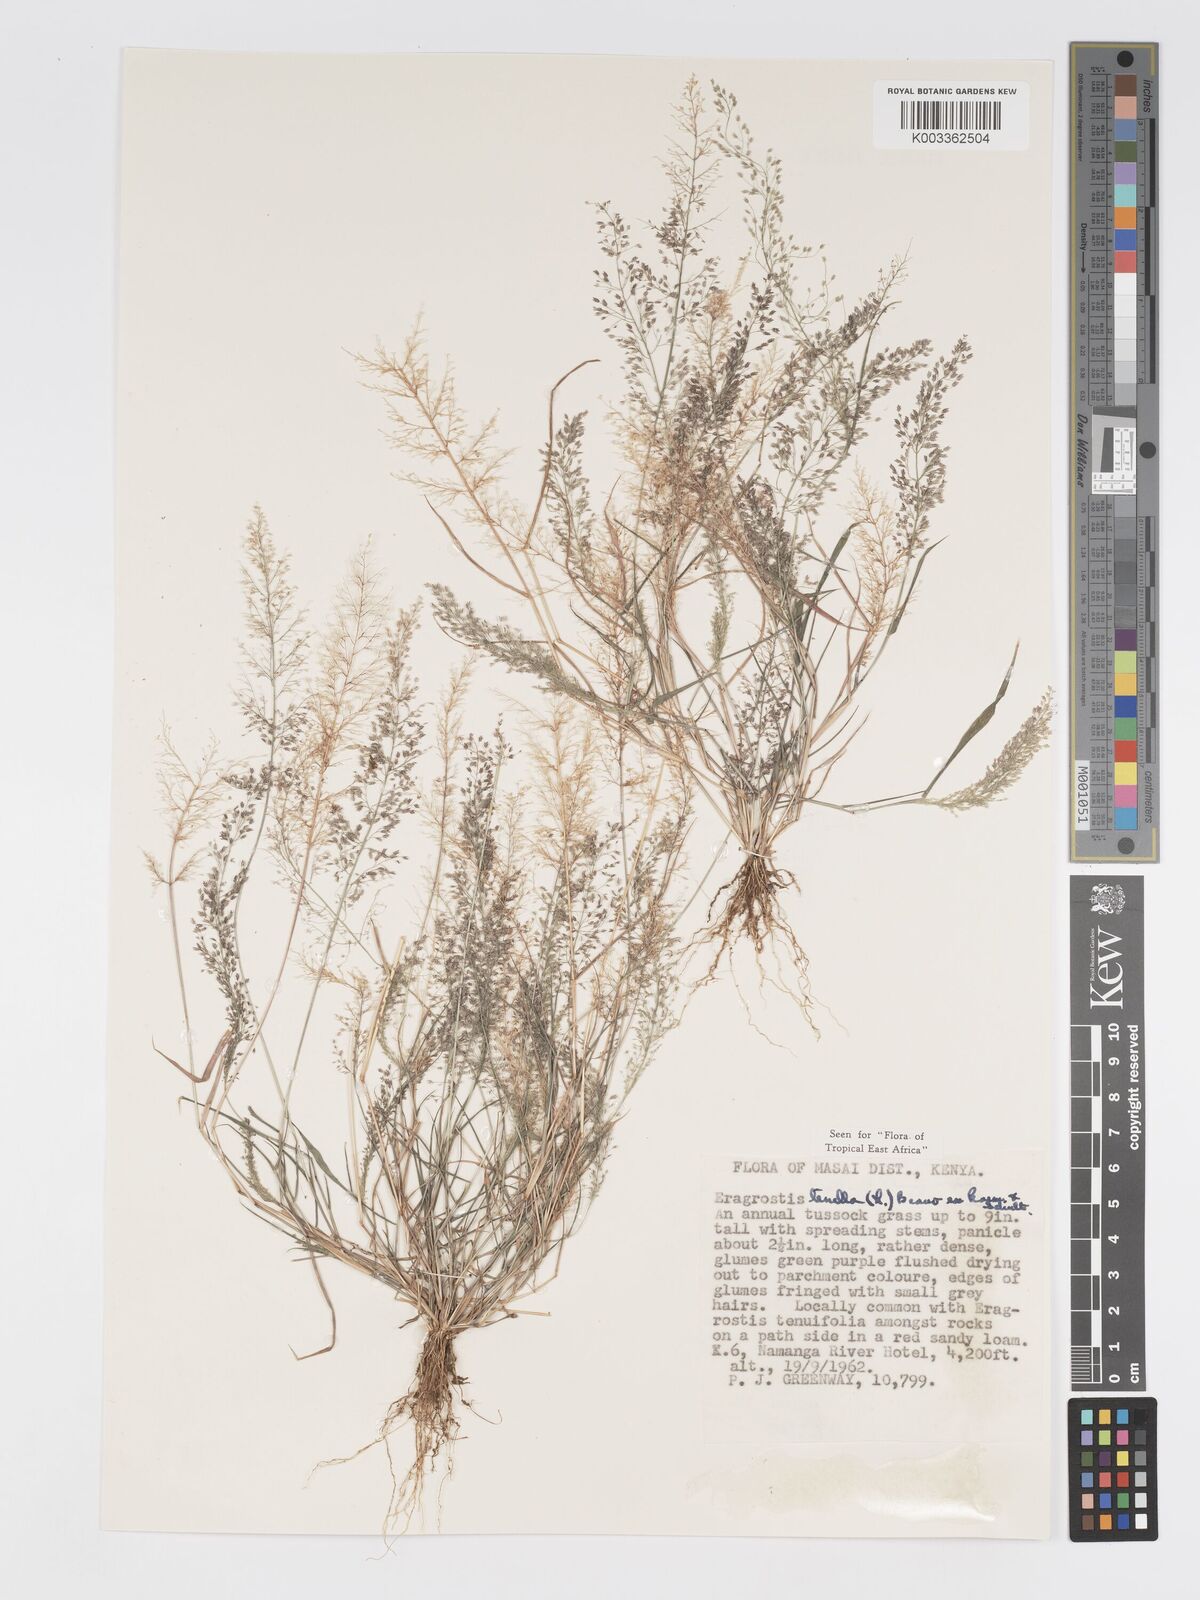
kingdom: Plantae
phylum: Tracheophyta
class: Liliopsida
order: Poales
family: Poaceae
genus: Eragrostis
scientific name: Eragrostis tenella
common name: Japanese lovegrass
